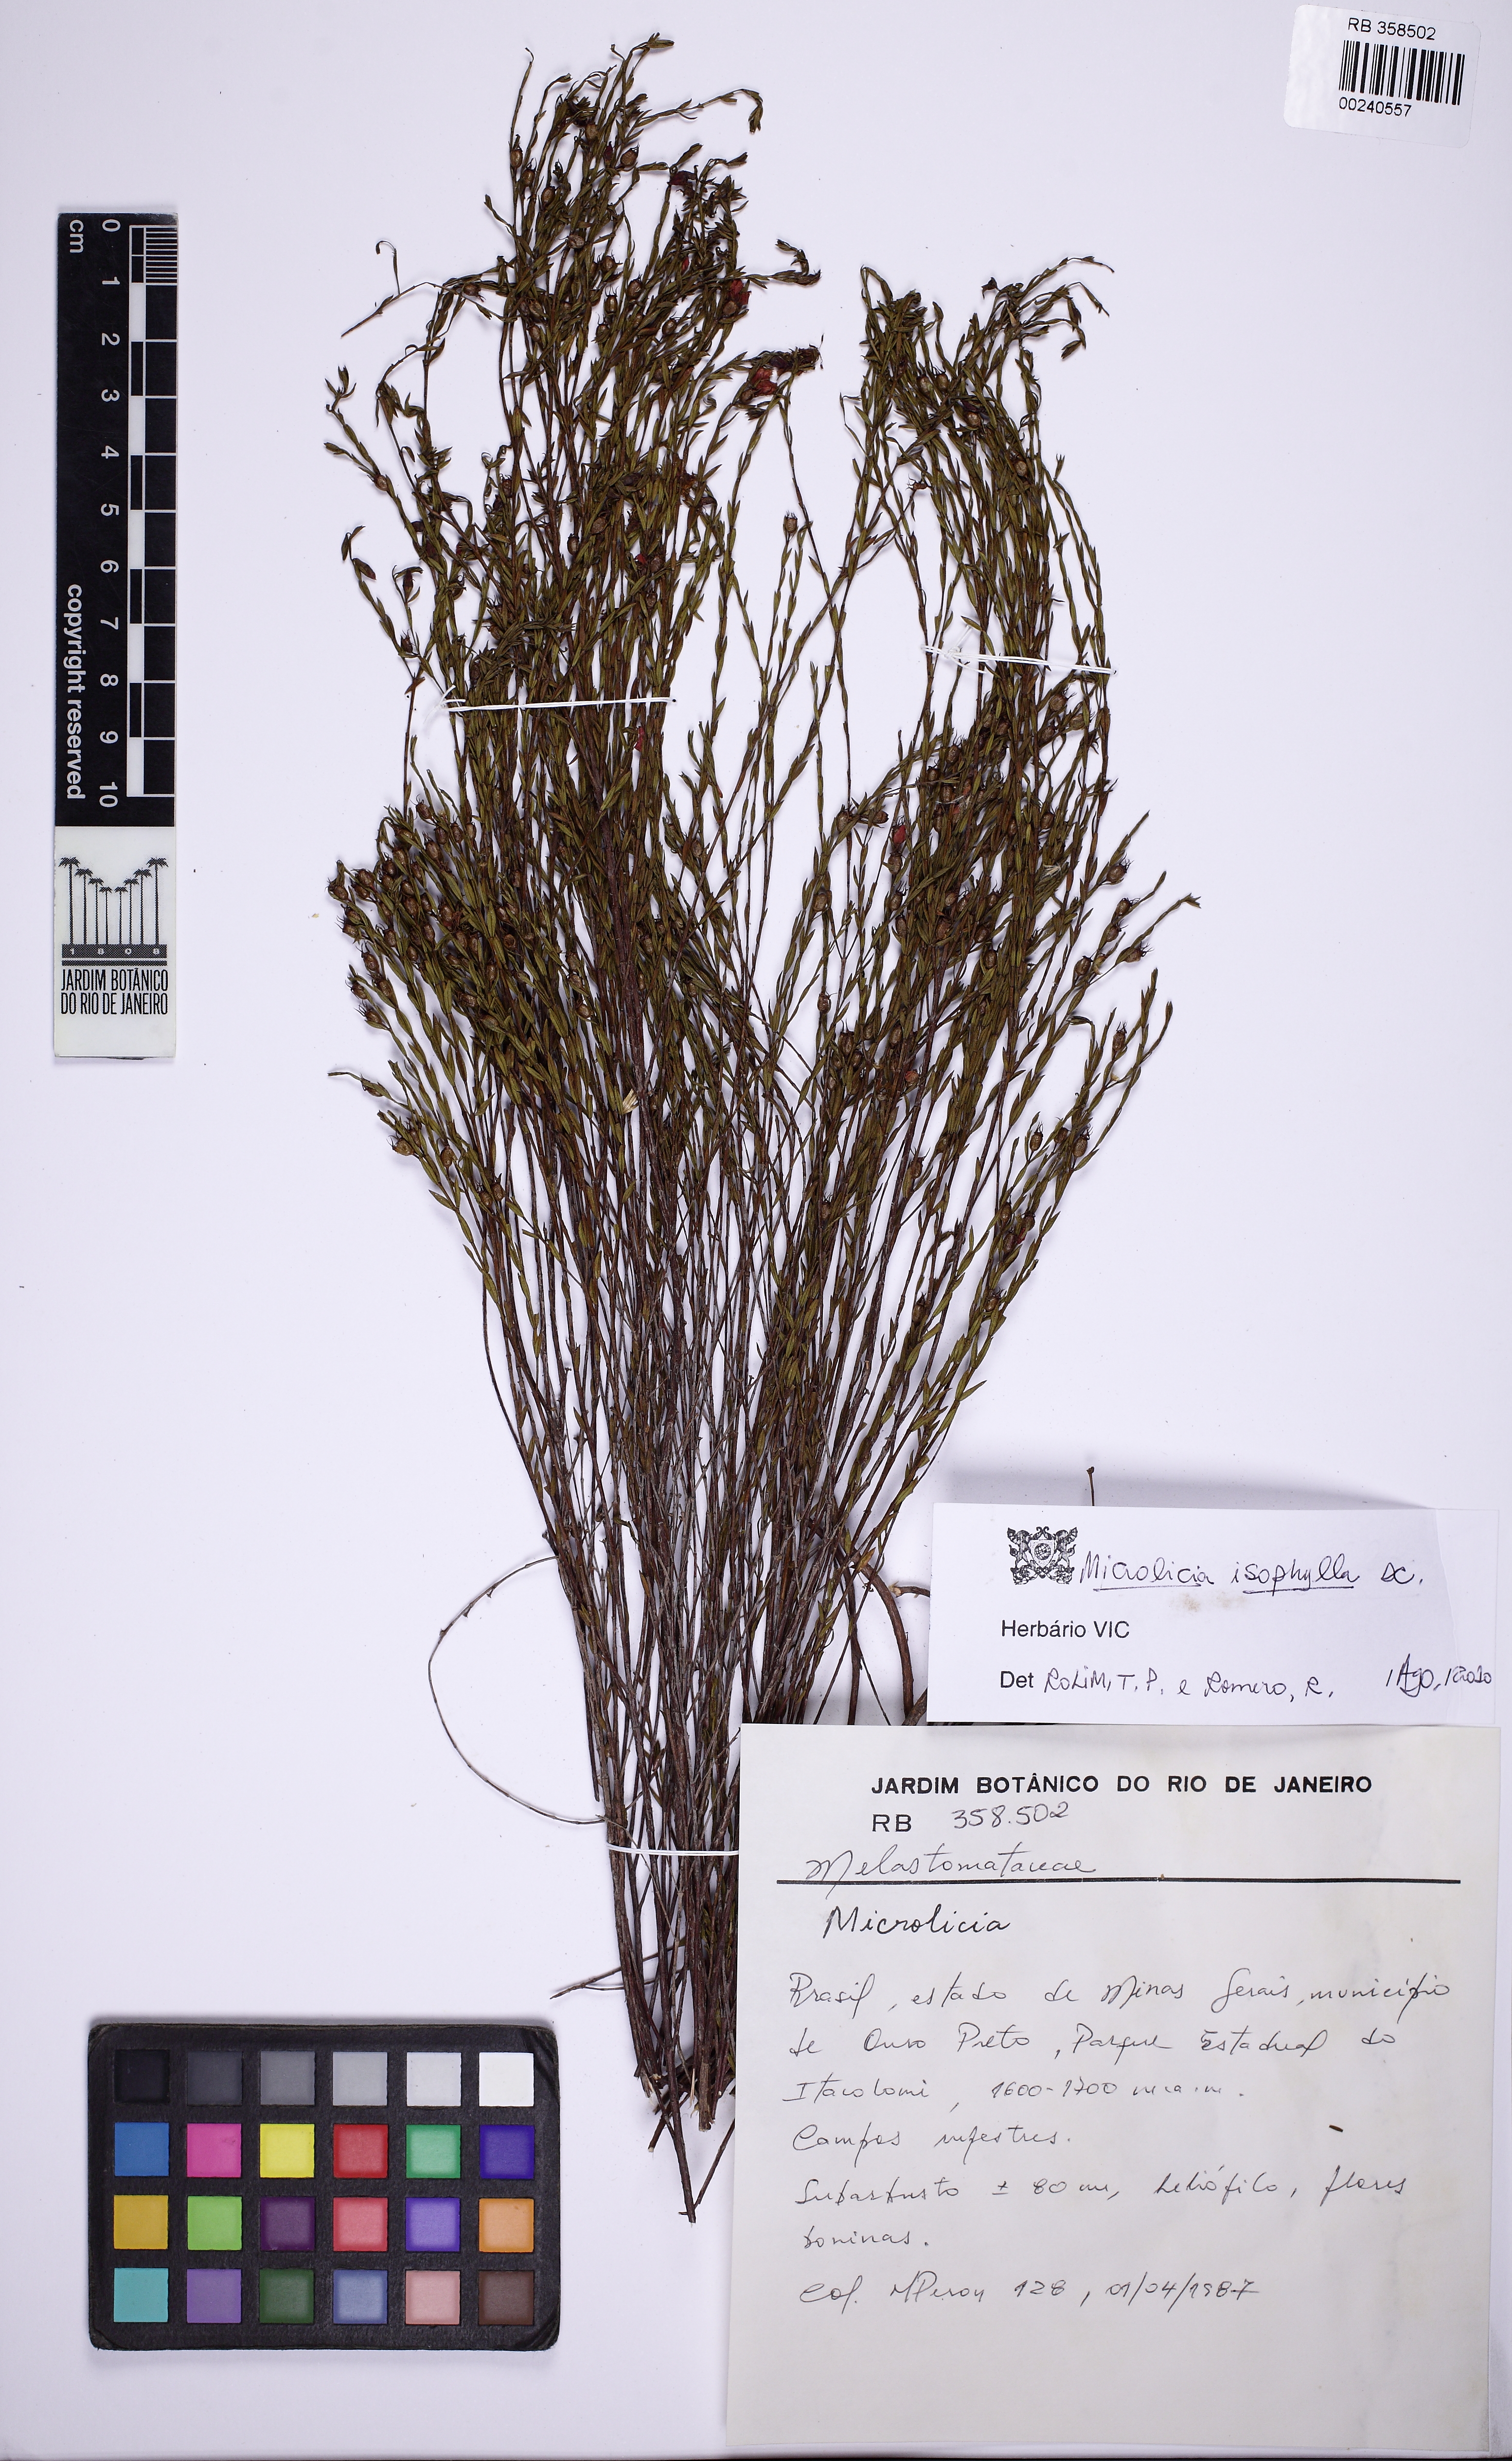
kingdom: Plantae
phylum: Tracheophyta
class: Magnoliopsida
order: Myrtales
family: Melastomataceae
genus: Microlicia
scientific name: Microlicia isophylla
